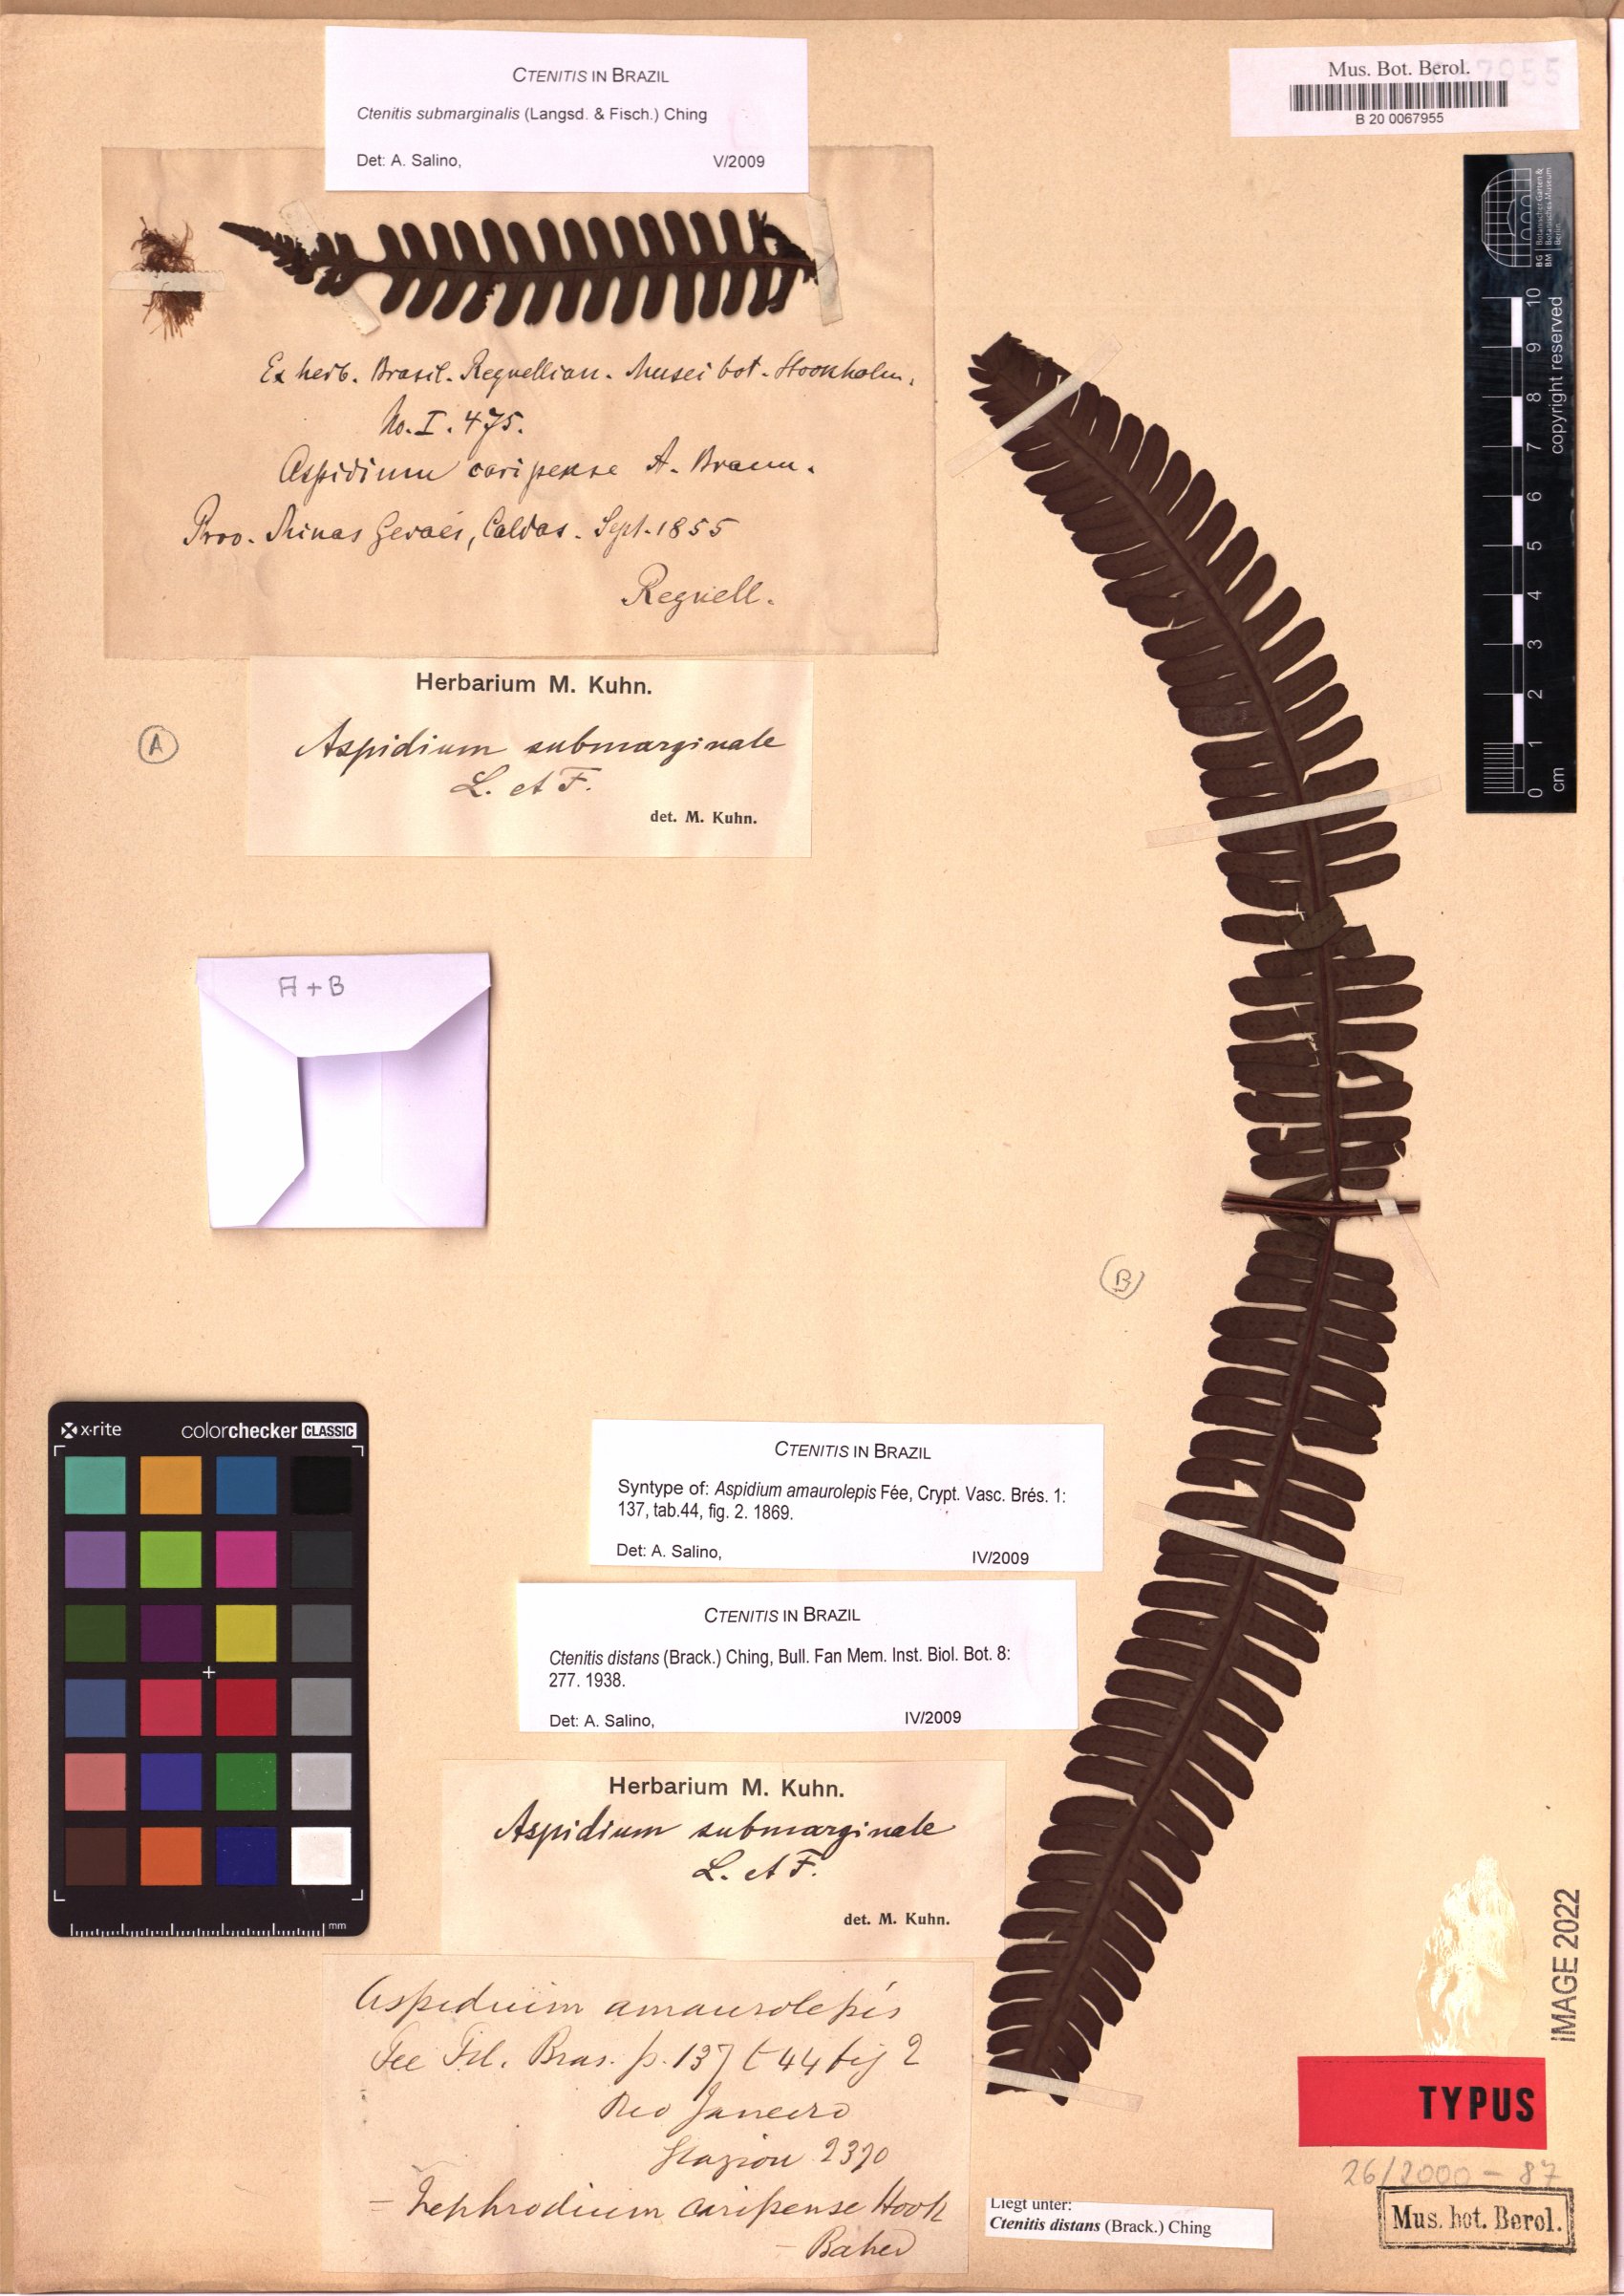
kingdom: Plantae
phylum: Tracheophyta
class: Polypodiopsida
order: Polypodiales
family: Dryopteridaceae
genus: Ctenitis
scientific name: Ctenitis distans
